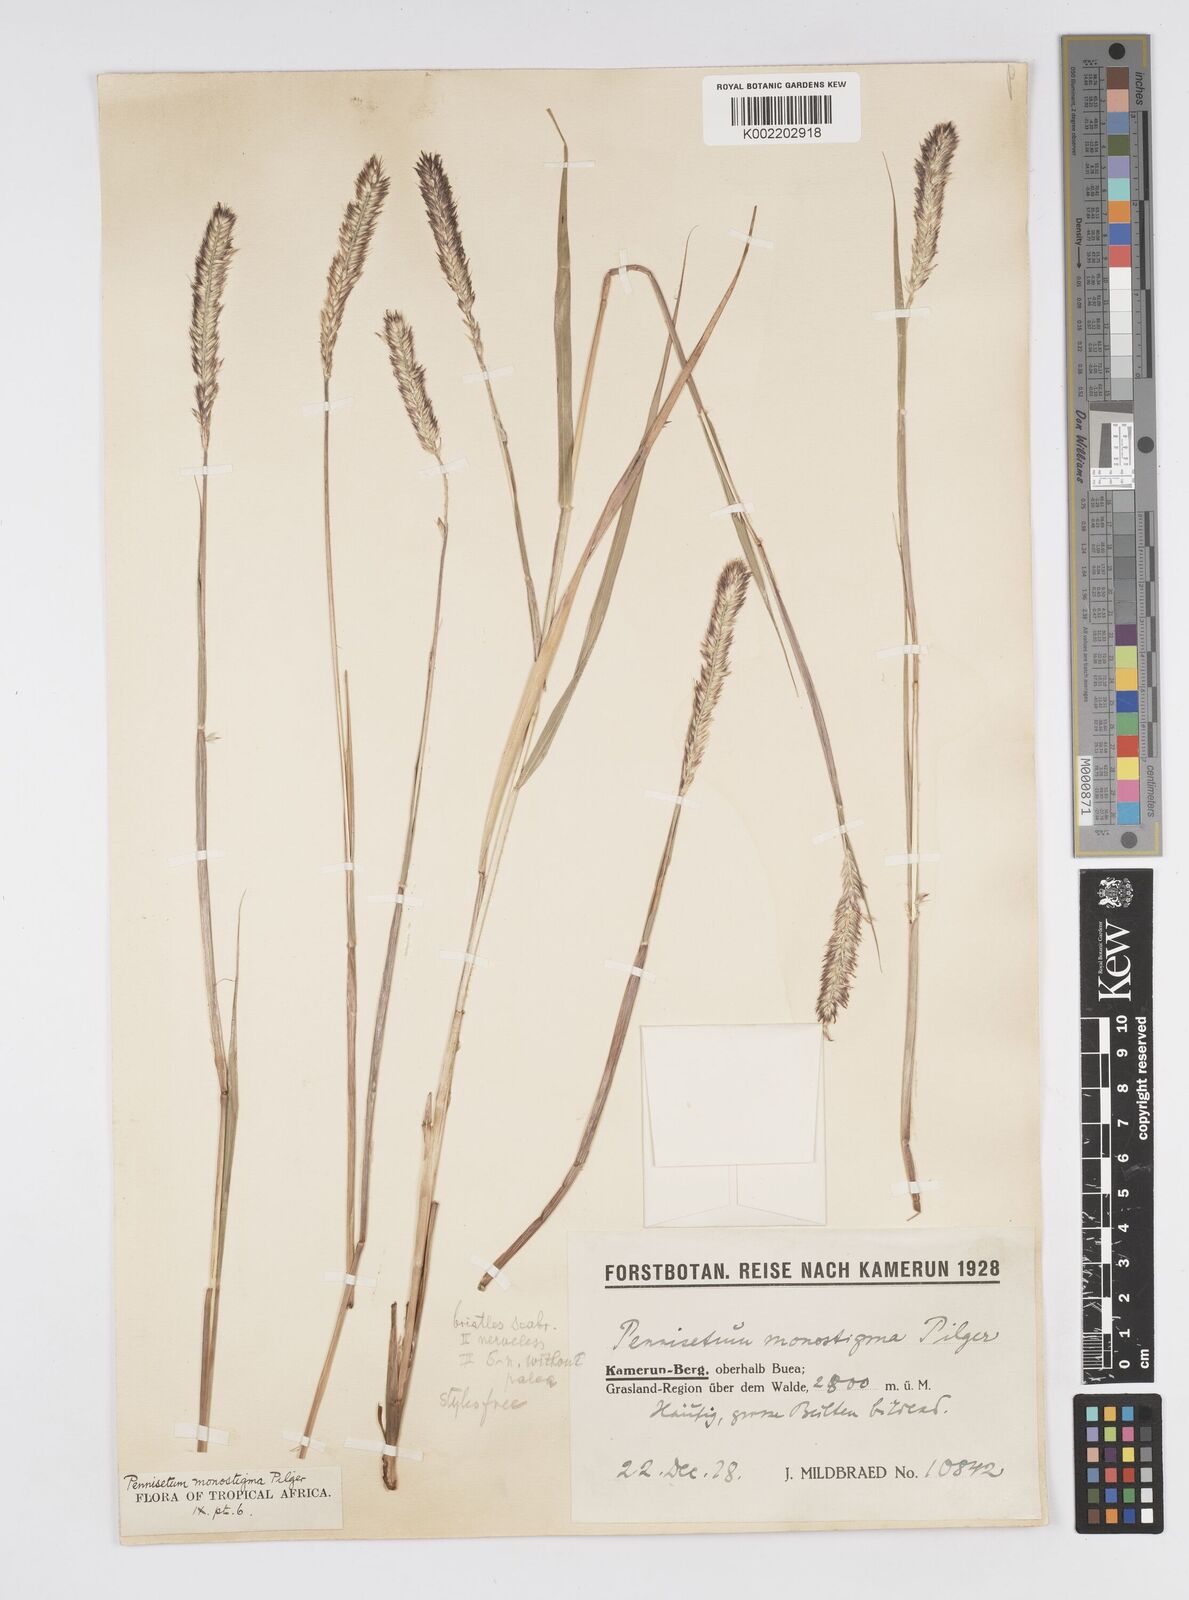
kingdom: Plantae
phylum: Tracheophyta
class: Liliopsida
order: Poales
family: Poaceae
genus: Cenchrus
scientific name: Cenchrus monostigma
